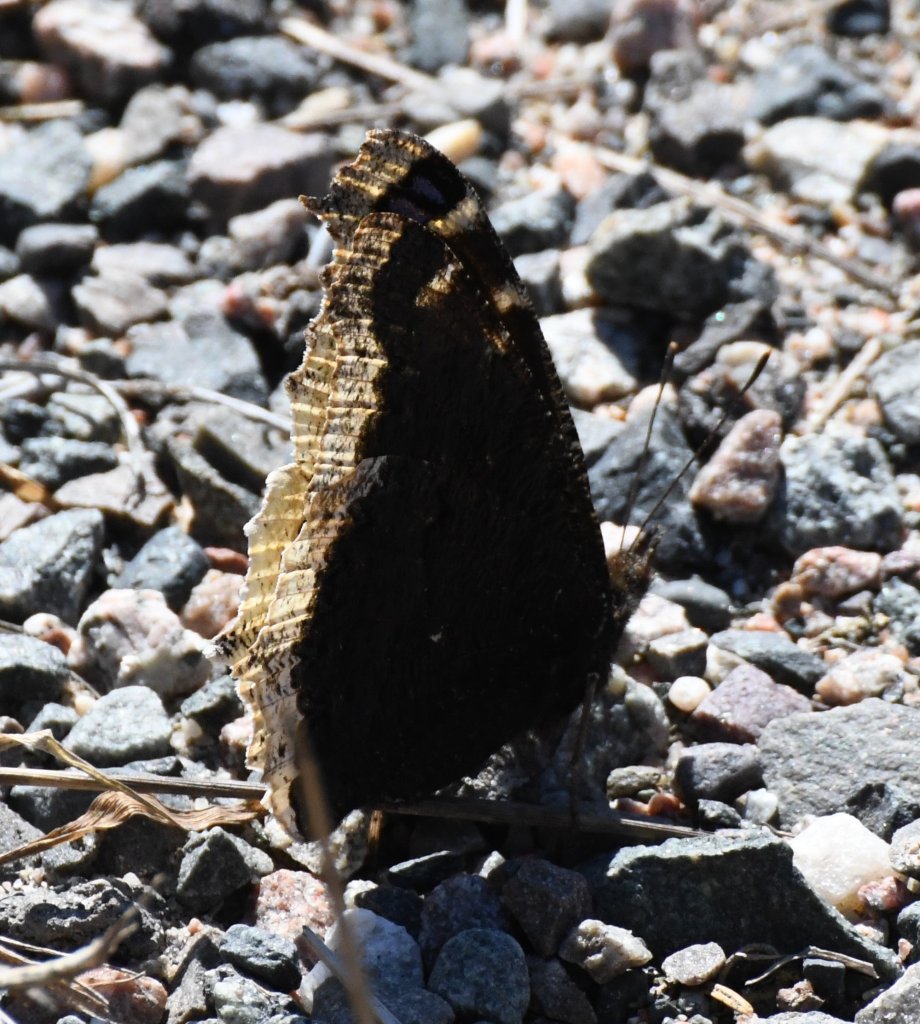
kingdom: Animalia
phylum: Arthropoda
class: Insecta
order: Lepidoptera
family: Nymphalidae
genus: Nymphalis
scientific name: Nymphalis antiopa
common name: Mourning Cloak
